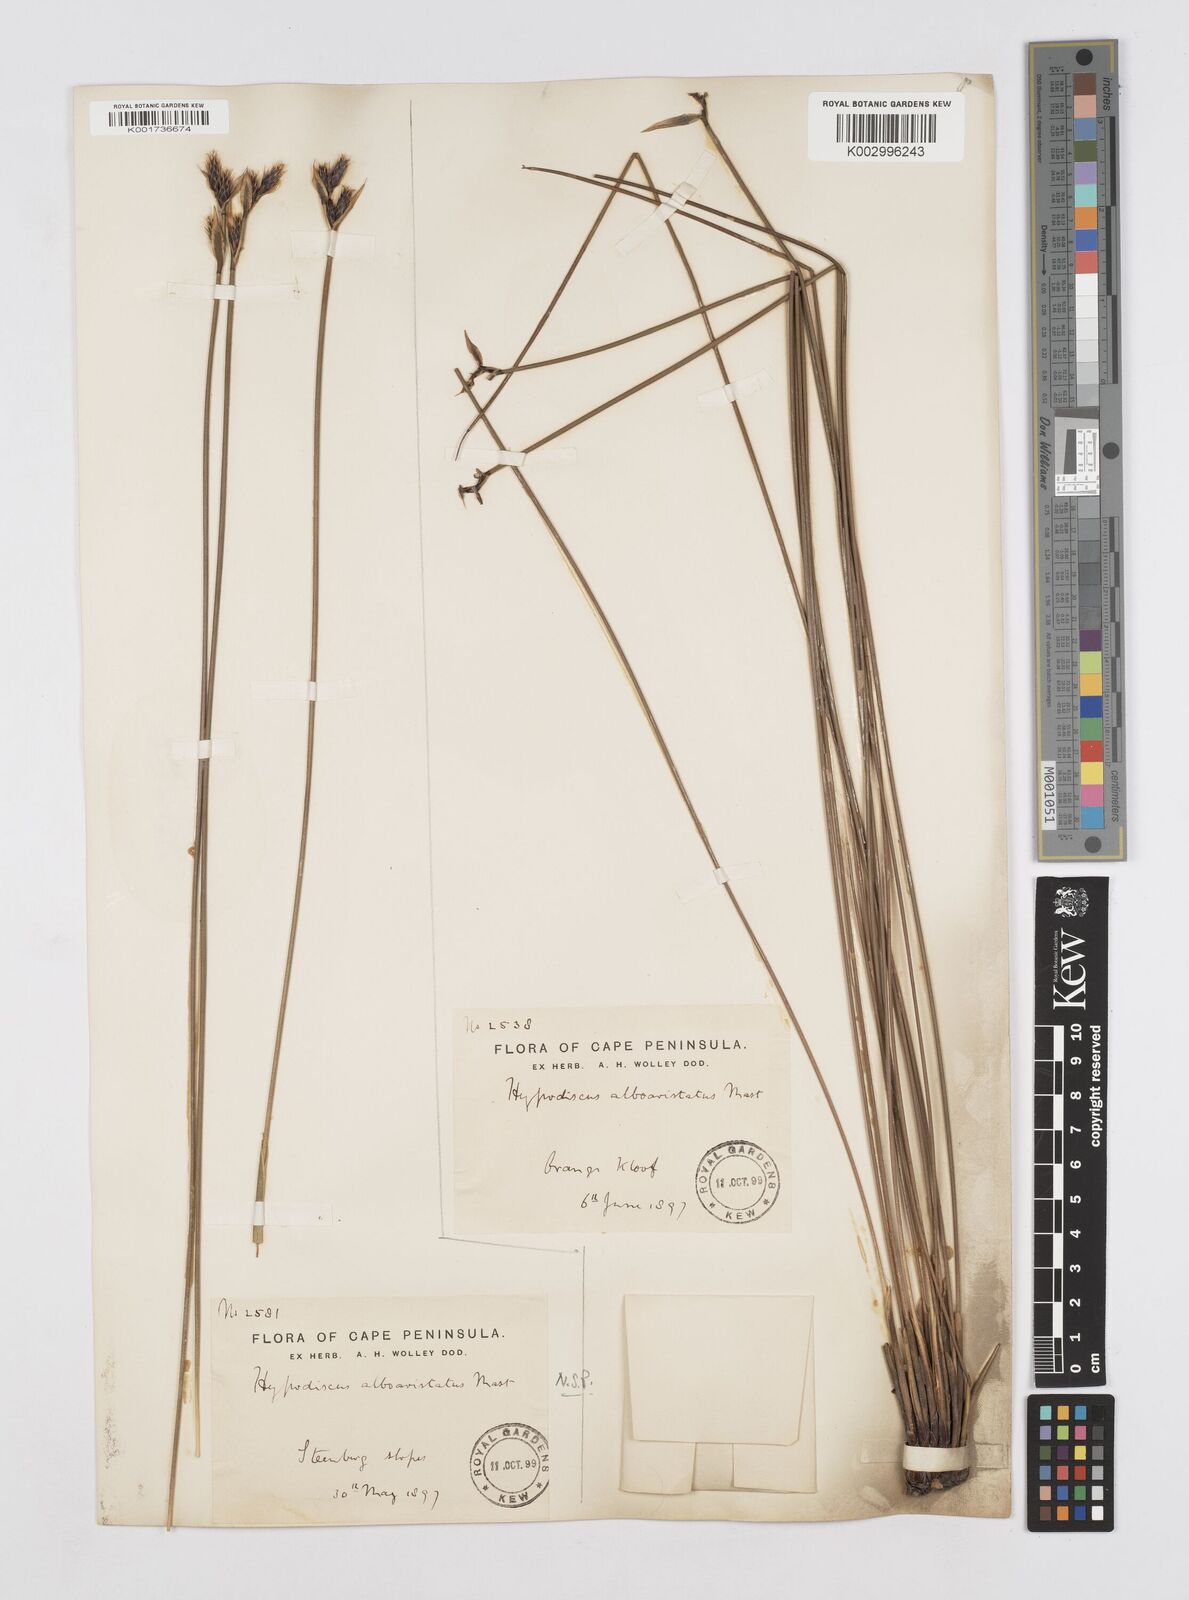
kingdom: Plantae
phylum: Tracheophyta
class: Liliopsida
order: Poales
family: Restionaceae
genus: Hypodiscus
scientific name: Hypodiscus alboaristatus
